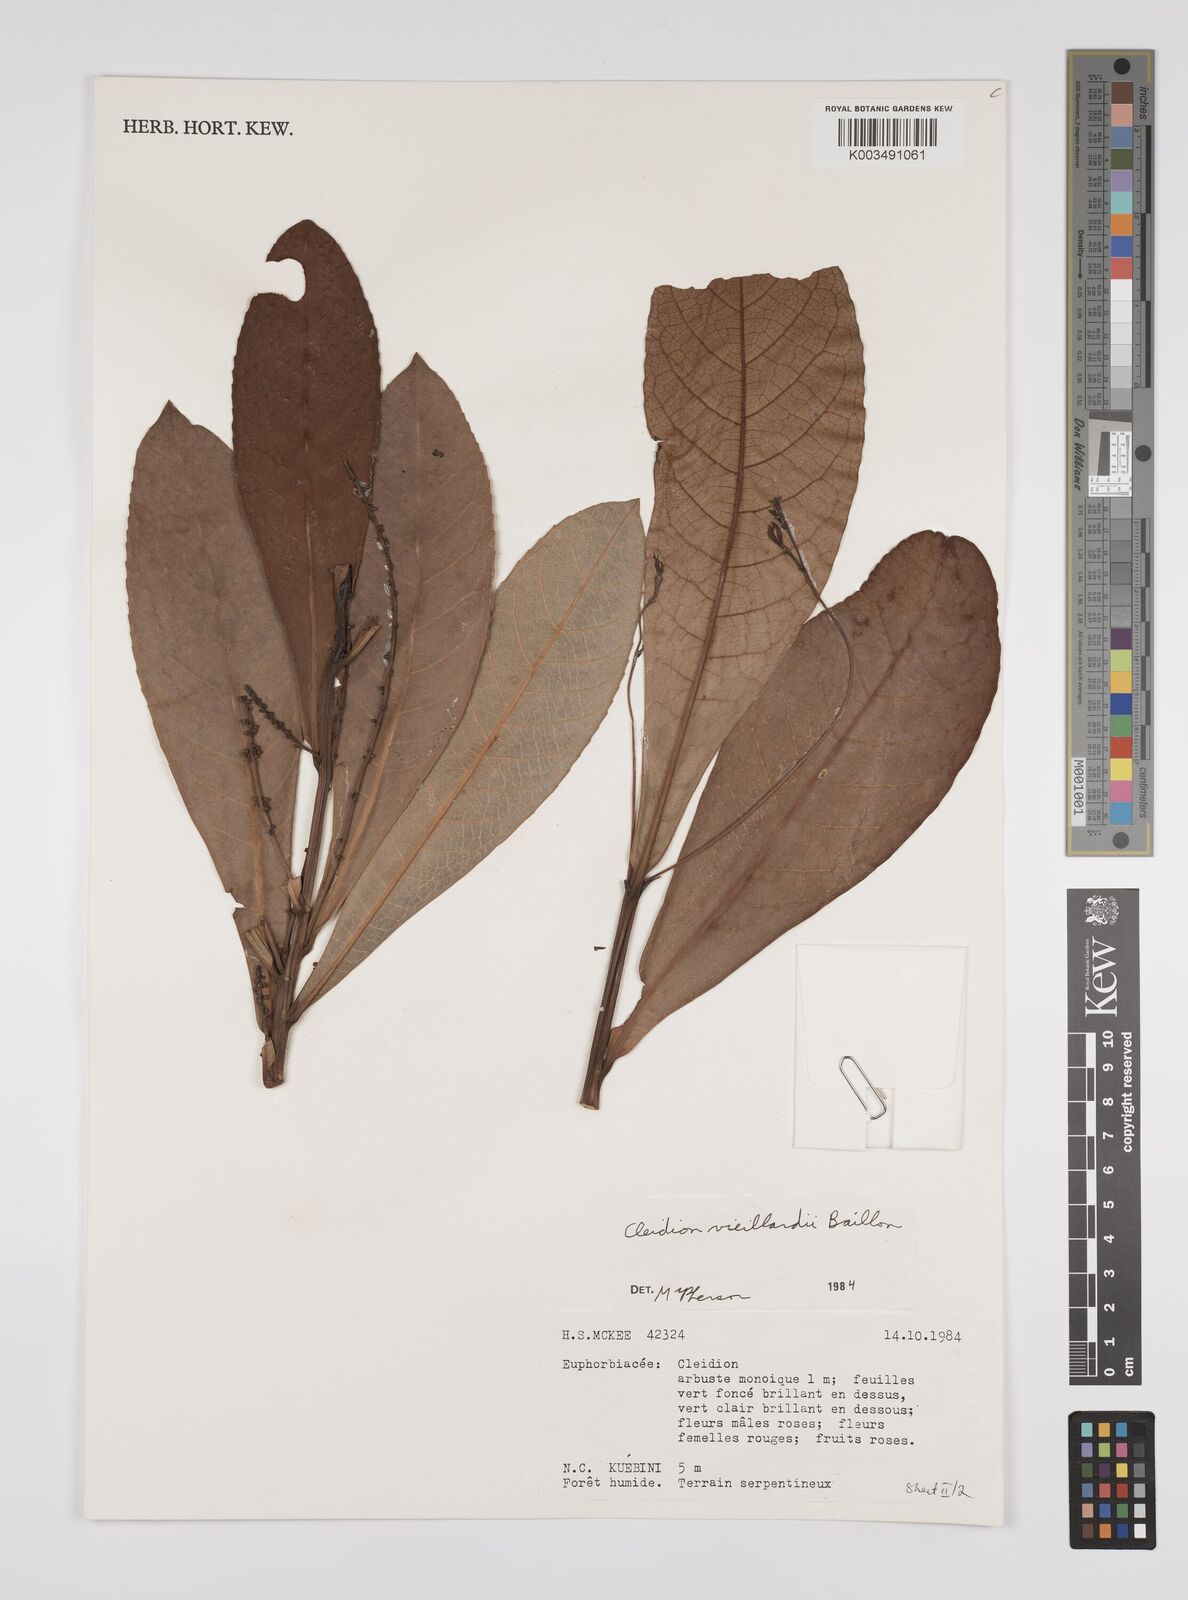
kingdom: Plantae
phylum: Tracheophyta
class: Magnoliopsida
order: Malpighiales
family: Euphorbiaceae
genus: Cleidion
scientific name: Cleidion vieillardii
